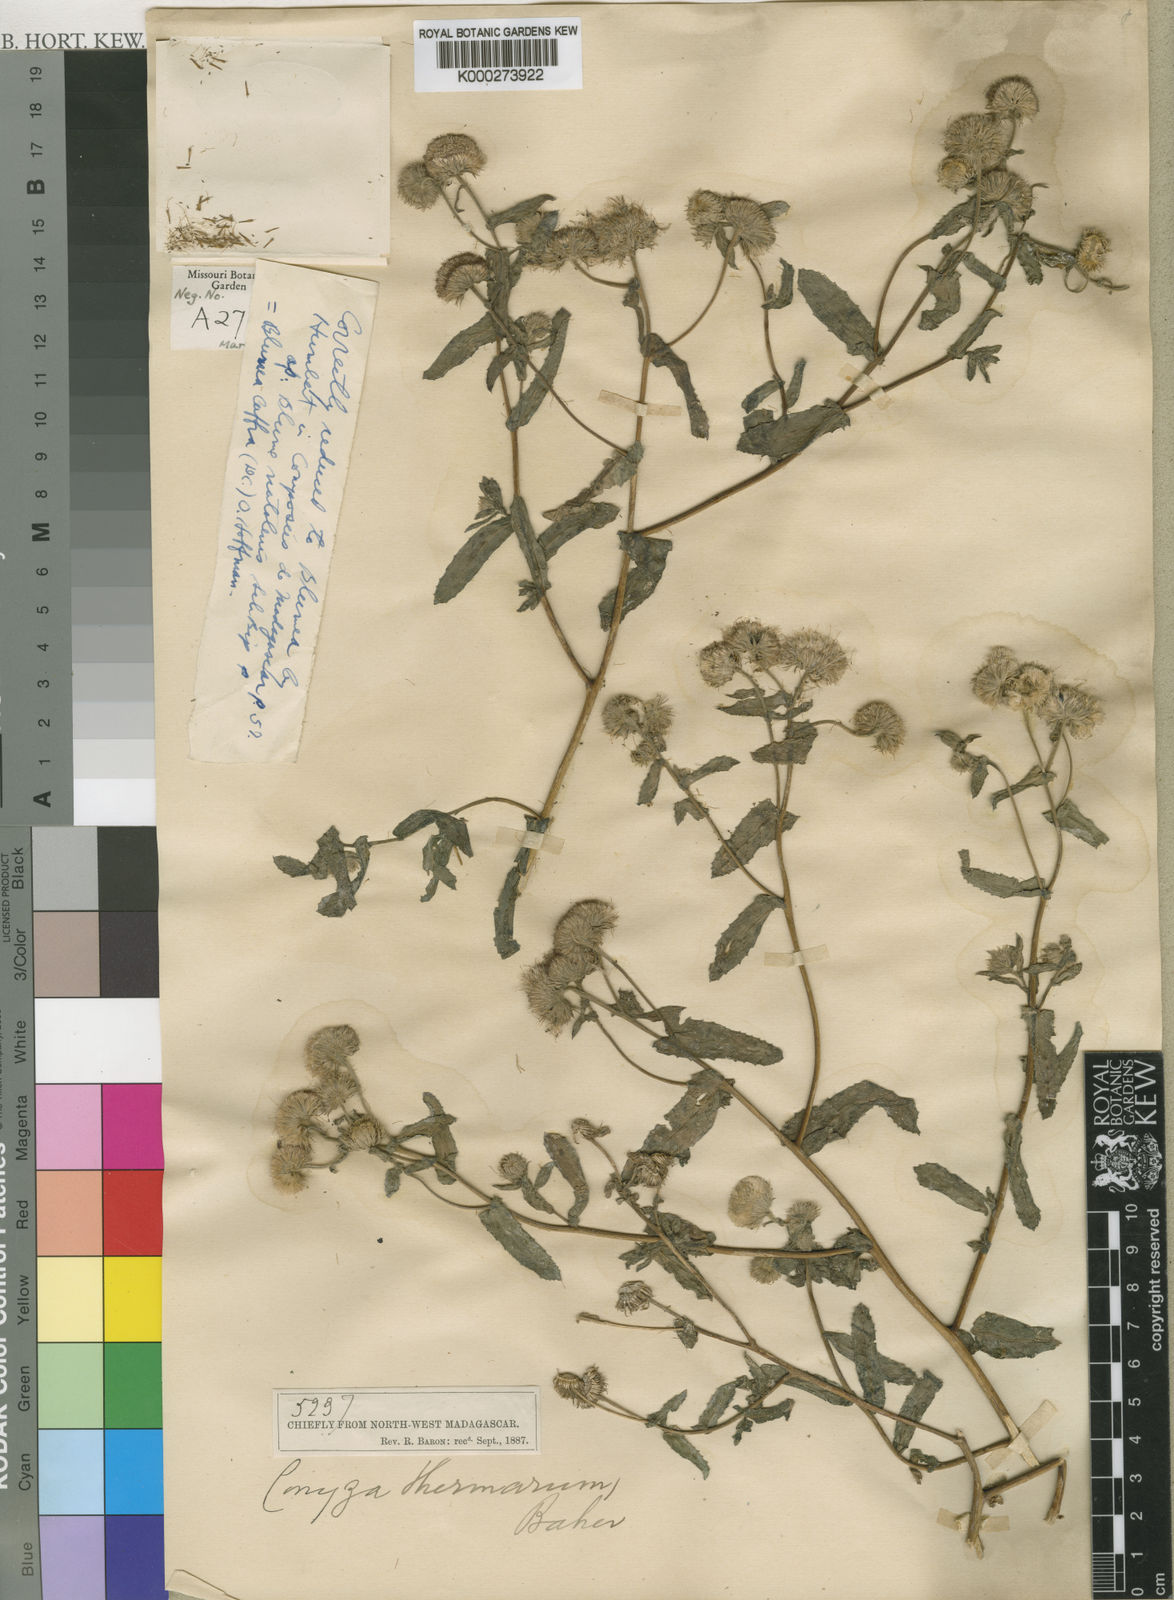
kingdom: Plantae
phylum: Tracheophyta
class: Magnoliopsida
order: Asterales
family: Asteraceae
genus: Doellia
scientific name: Doellia cafra
